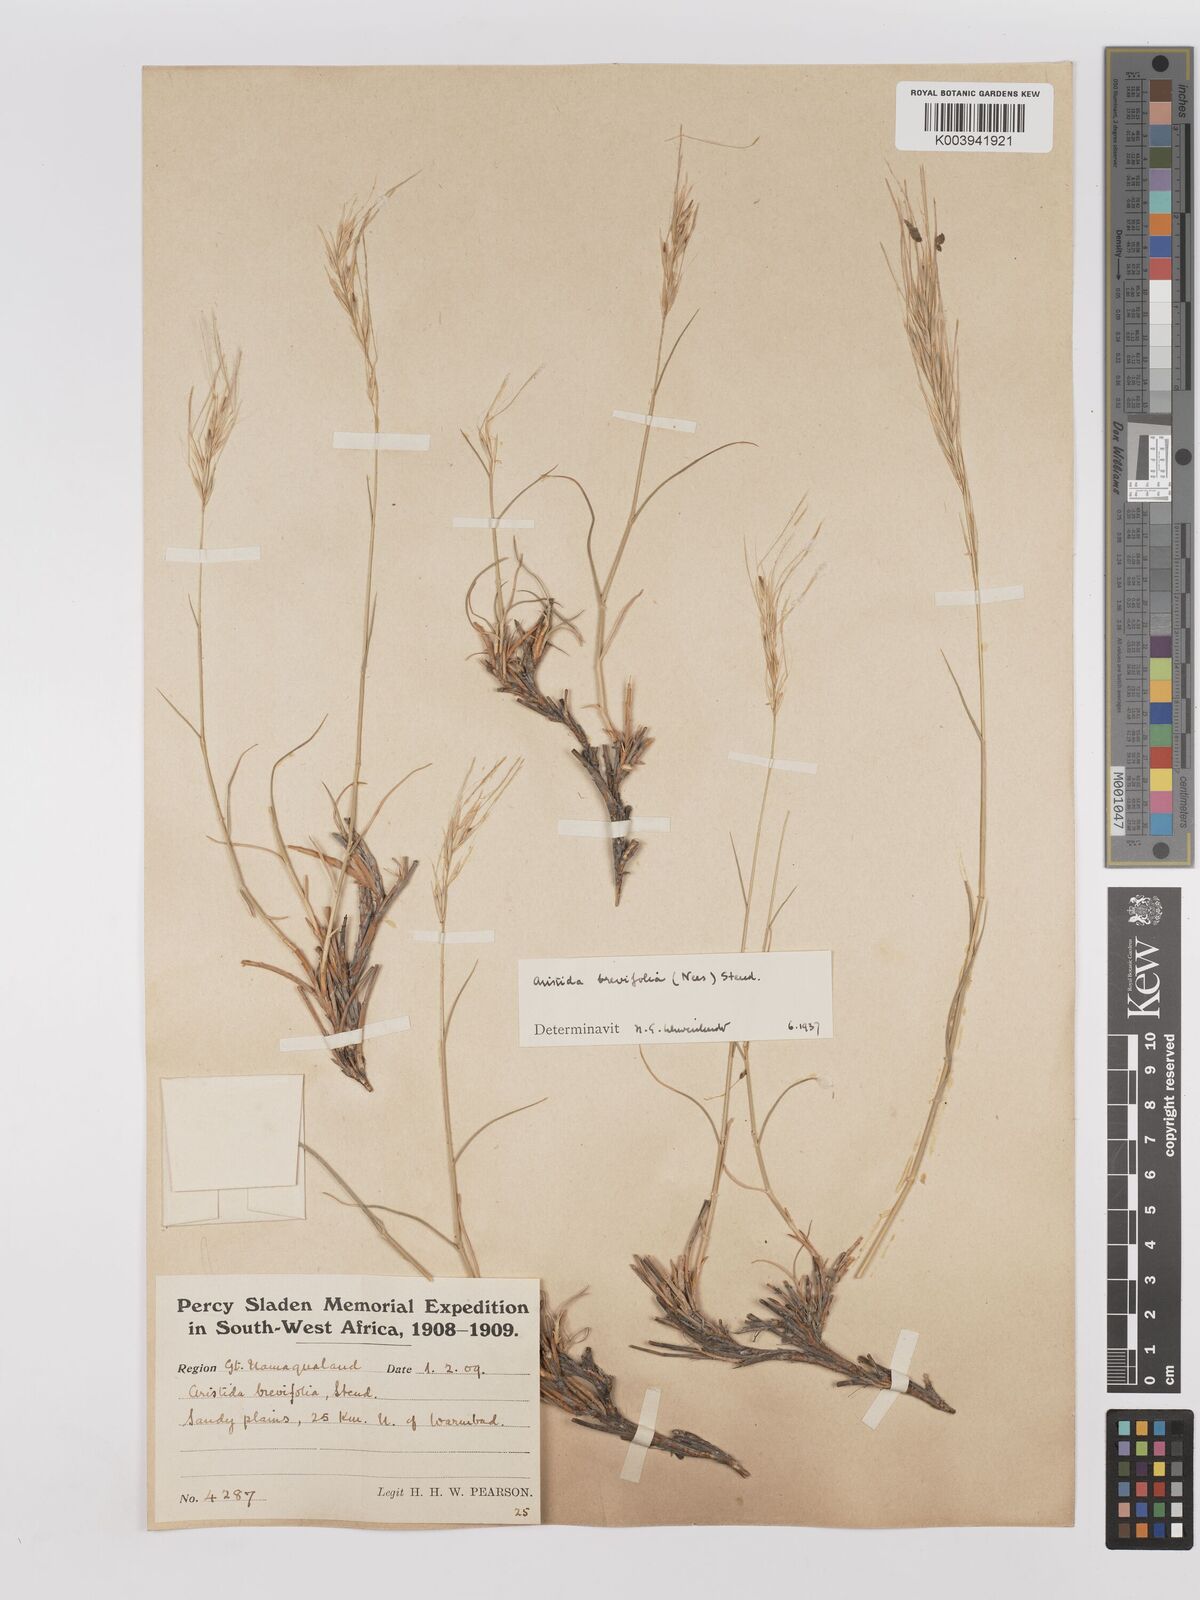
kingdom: Plantae
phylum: Tracheophyta
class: Liliopsida
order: Poales
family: Poaceae
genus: Stipagrostis
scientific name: Stipagrostis brevifolia
